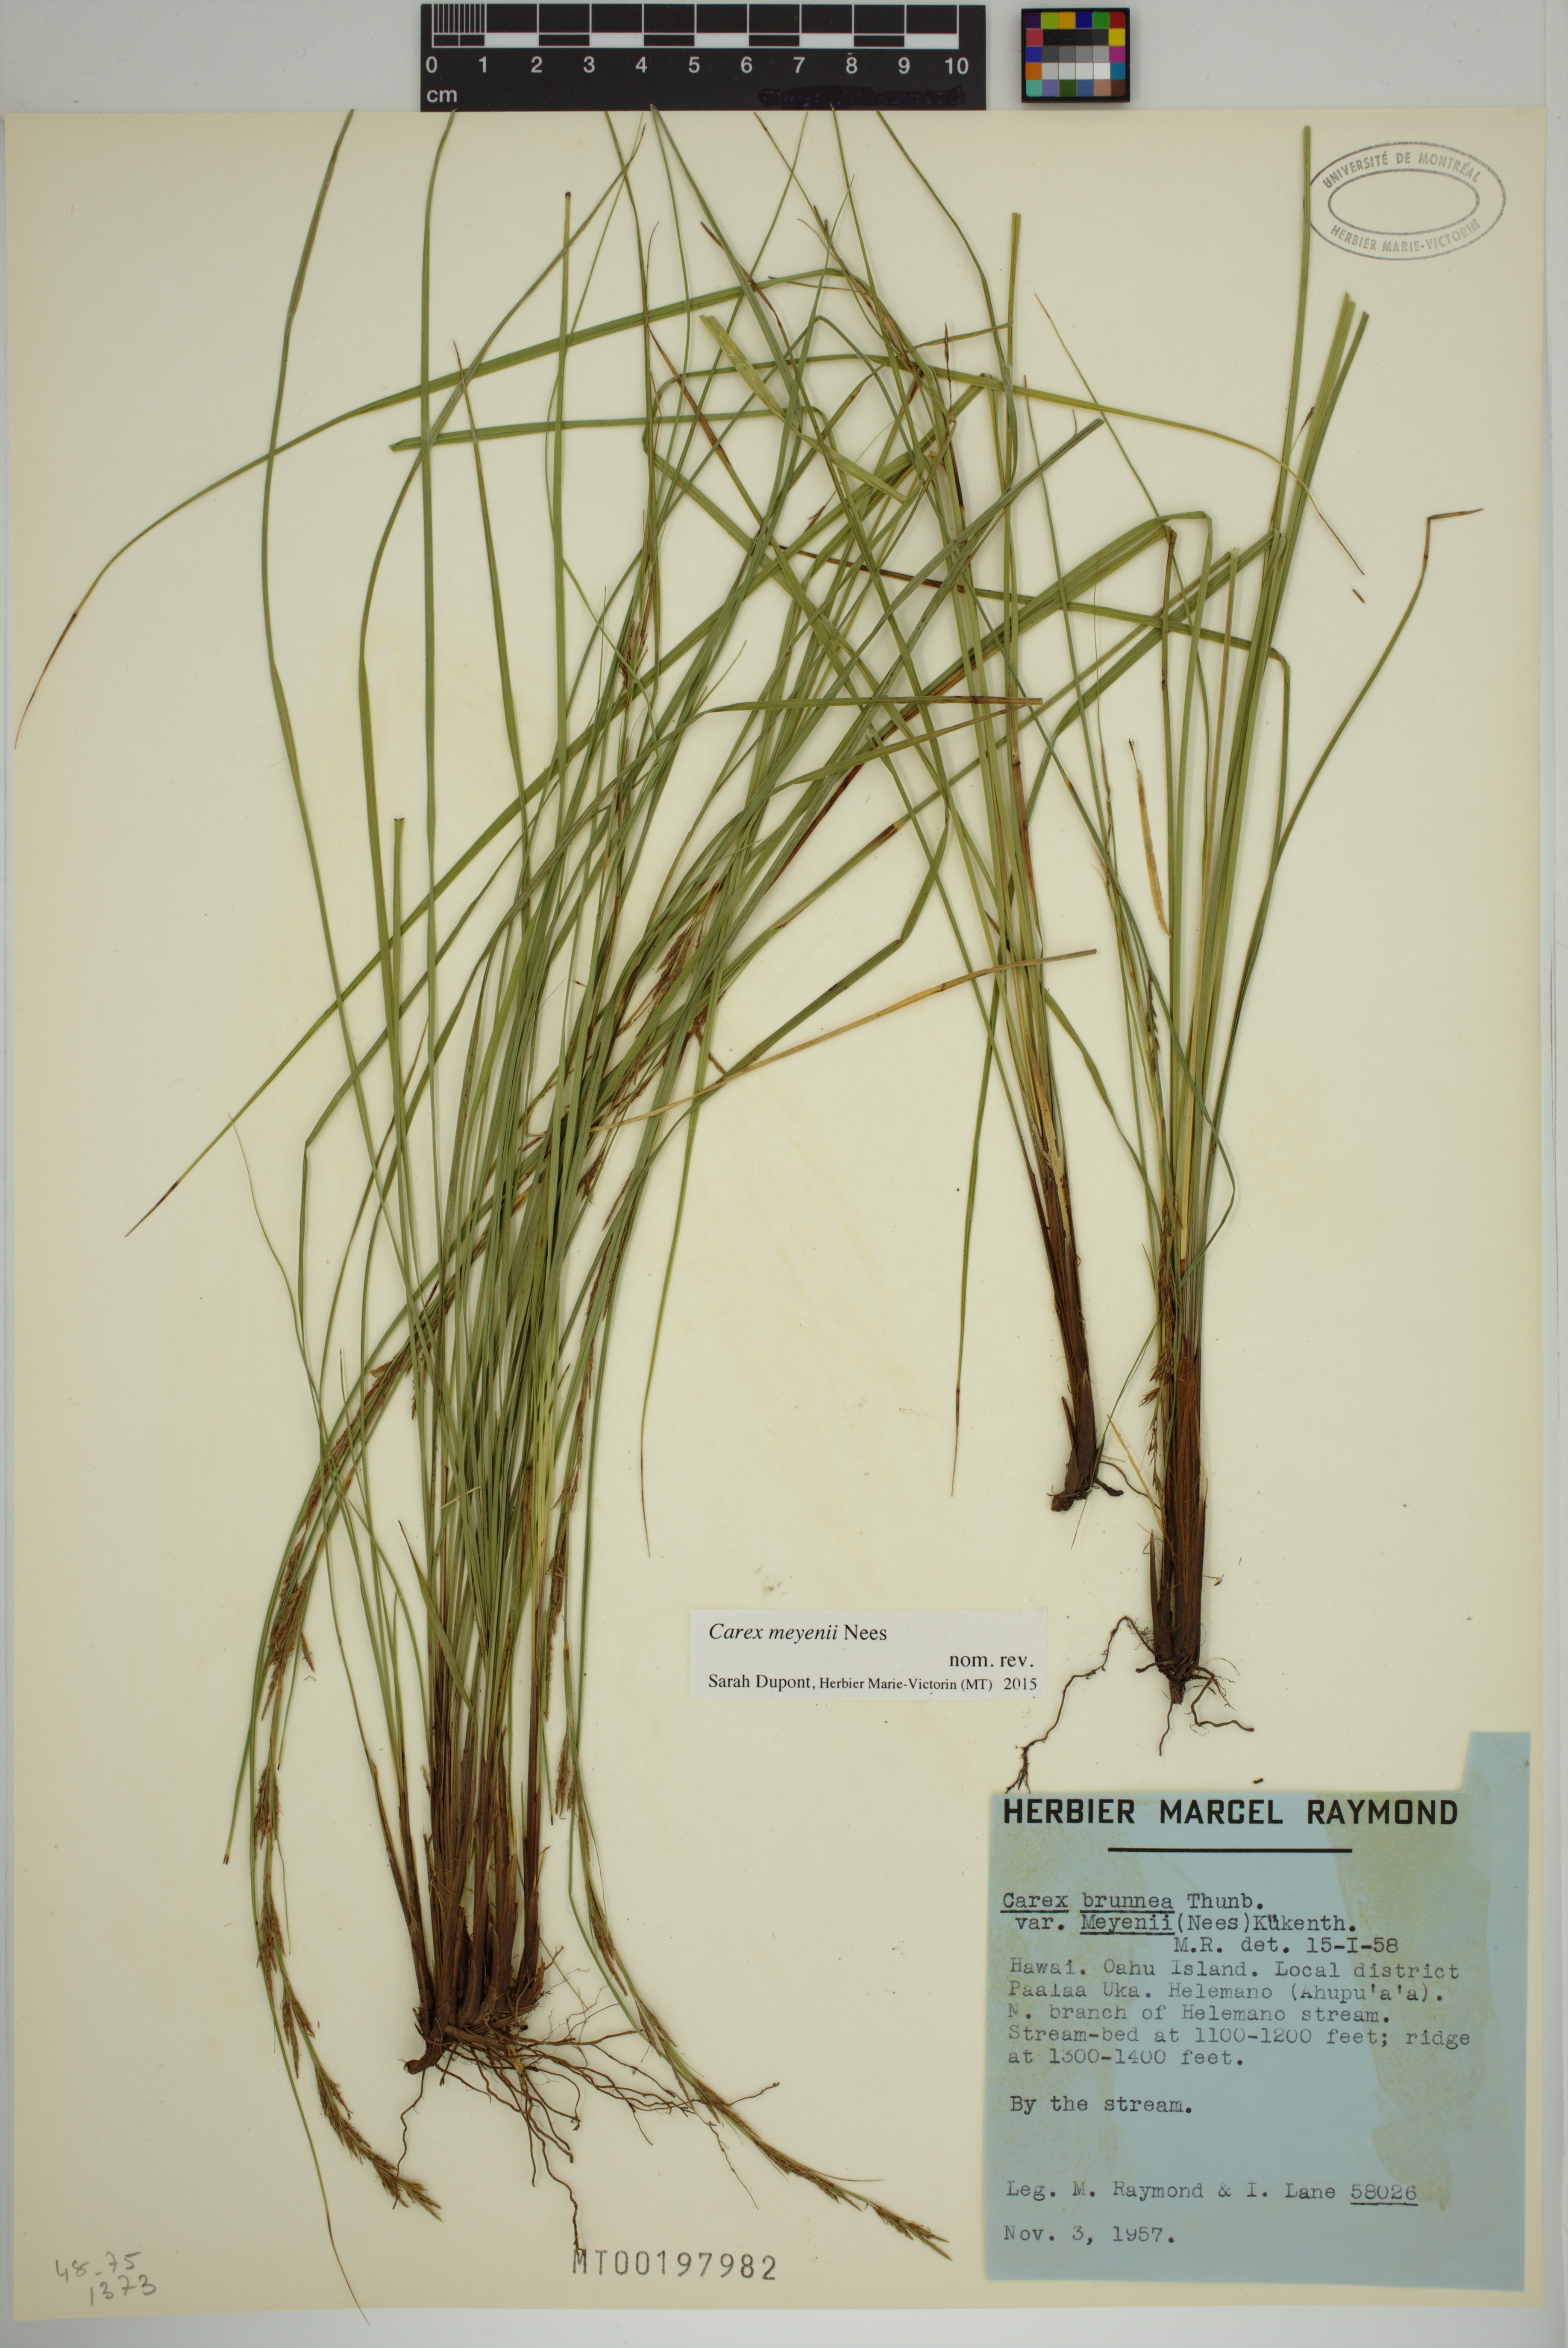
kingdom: Plantae
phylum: Tracheophyta
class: Liliopsida
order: Poales
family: Cyperaceae
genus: Carex
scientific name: Carex meyenii
